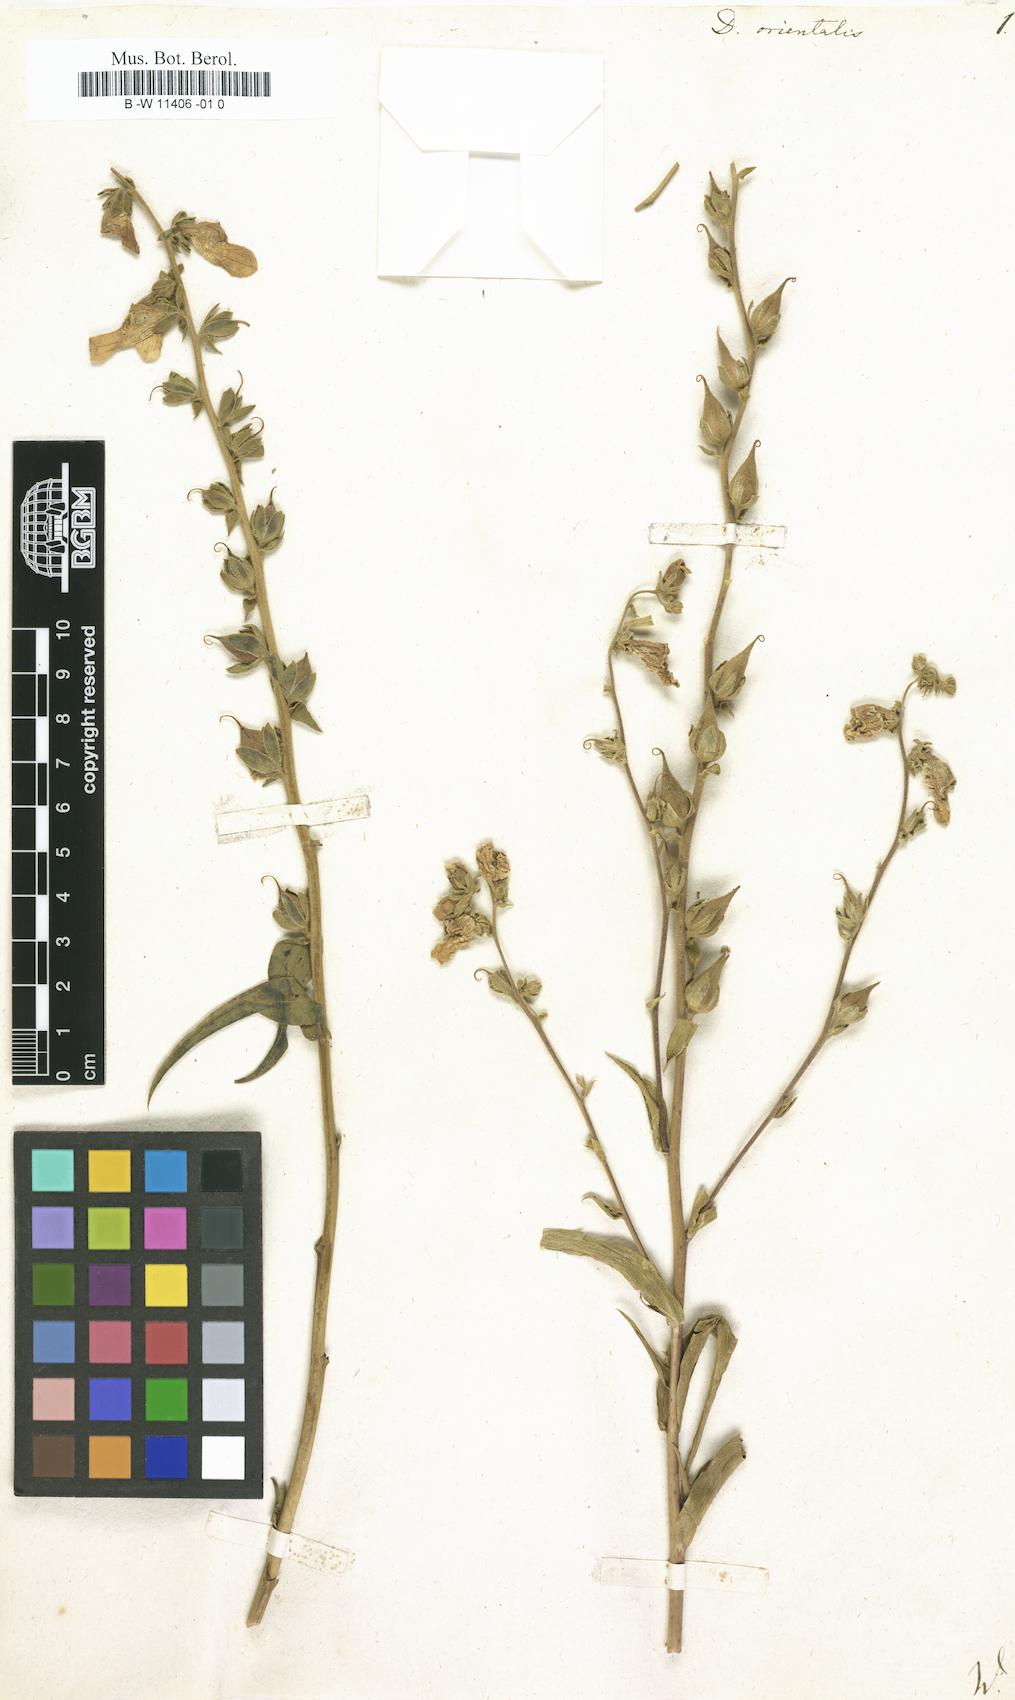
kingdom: Plantae
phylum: Tracheophyta
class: Magnoliopsida
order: Lamiales
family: Plantaginaceae
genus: Digitalis
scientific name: Digitalis
